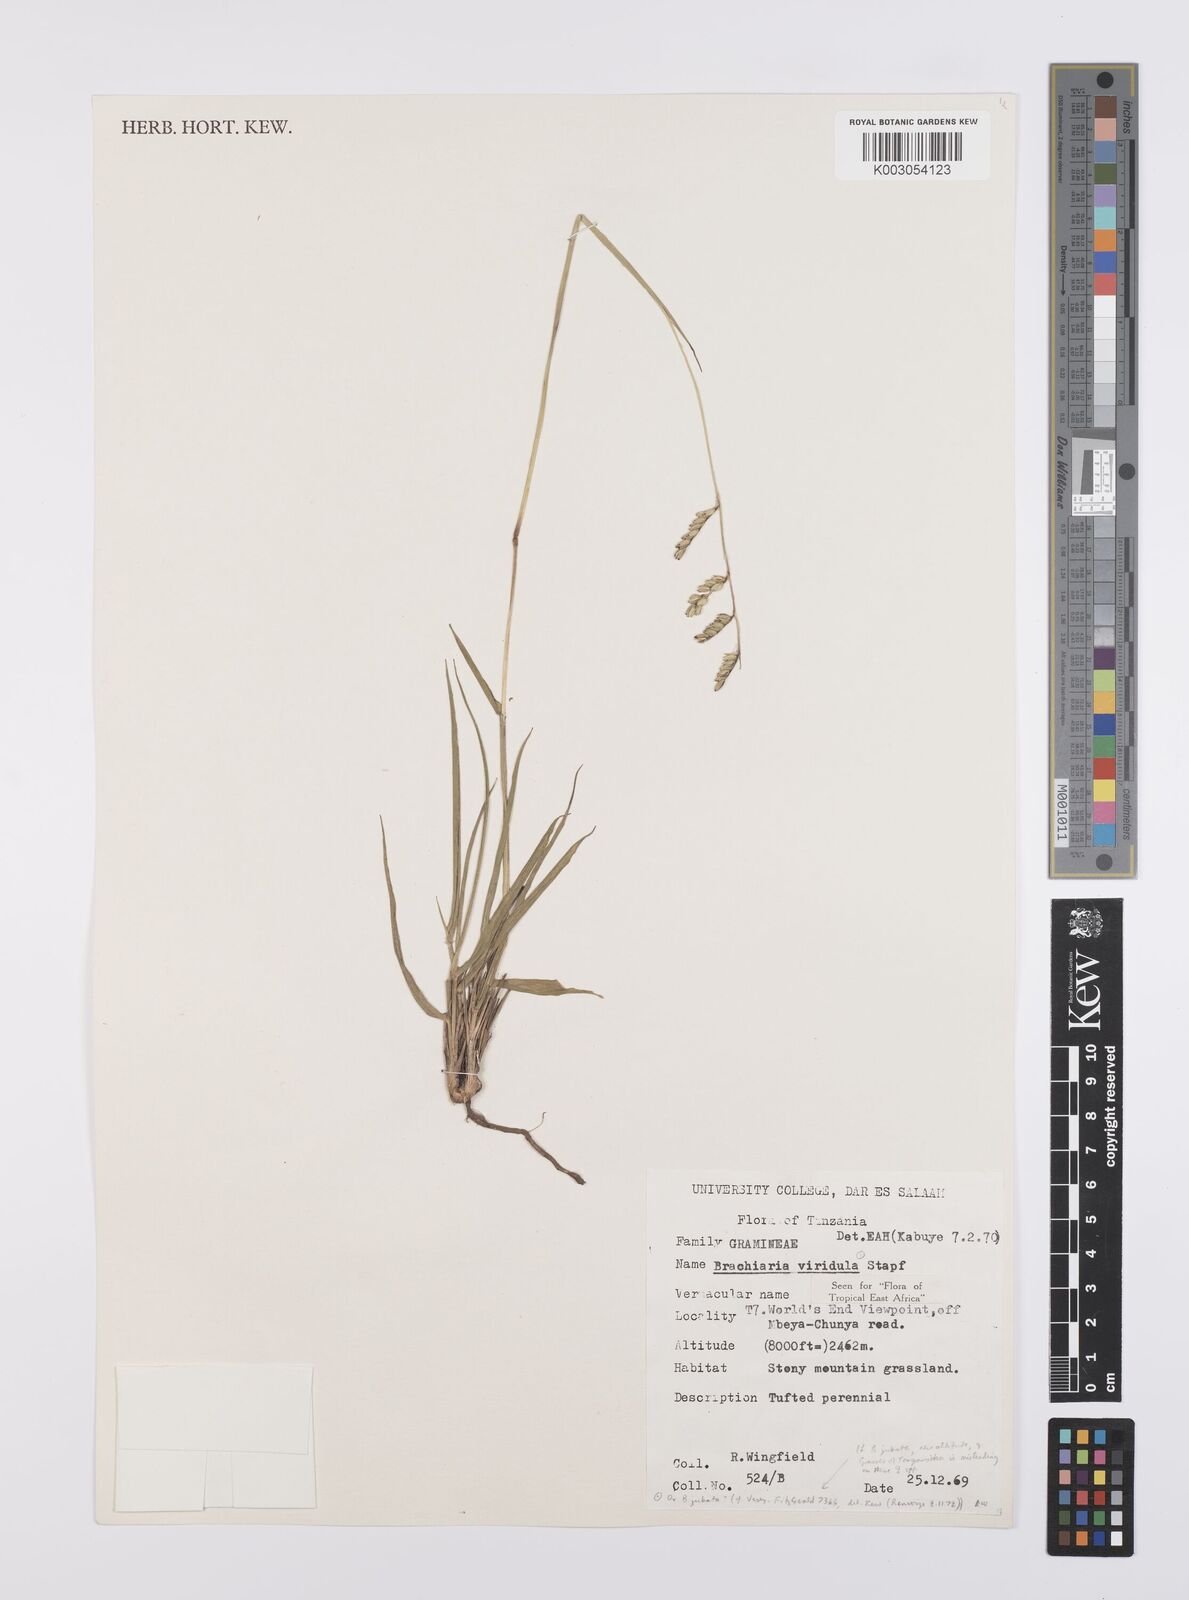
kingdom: Plantae
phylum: Tracheophyta
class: Liliopsida
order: Poales
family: Poaceae
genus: Urochloa
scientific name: Urochloa bovonei
